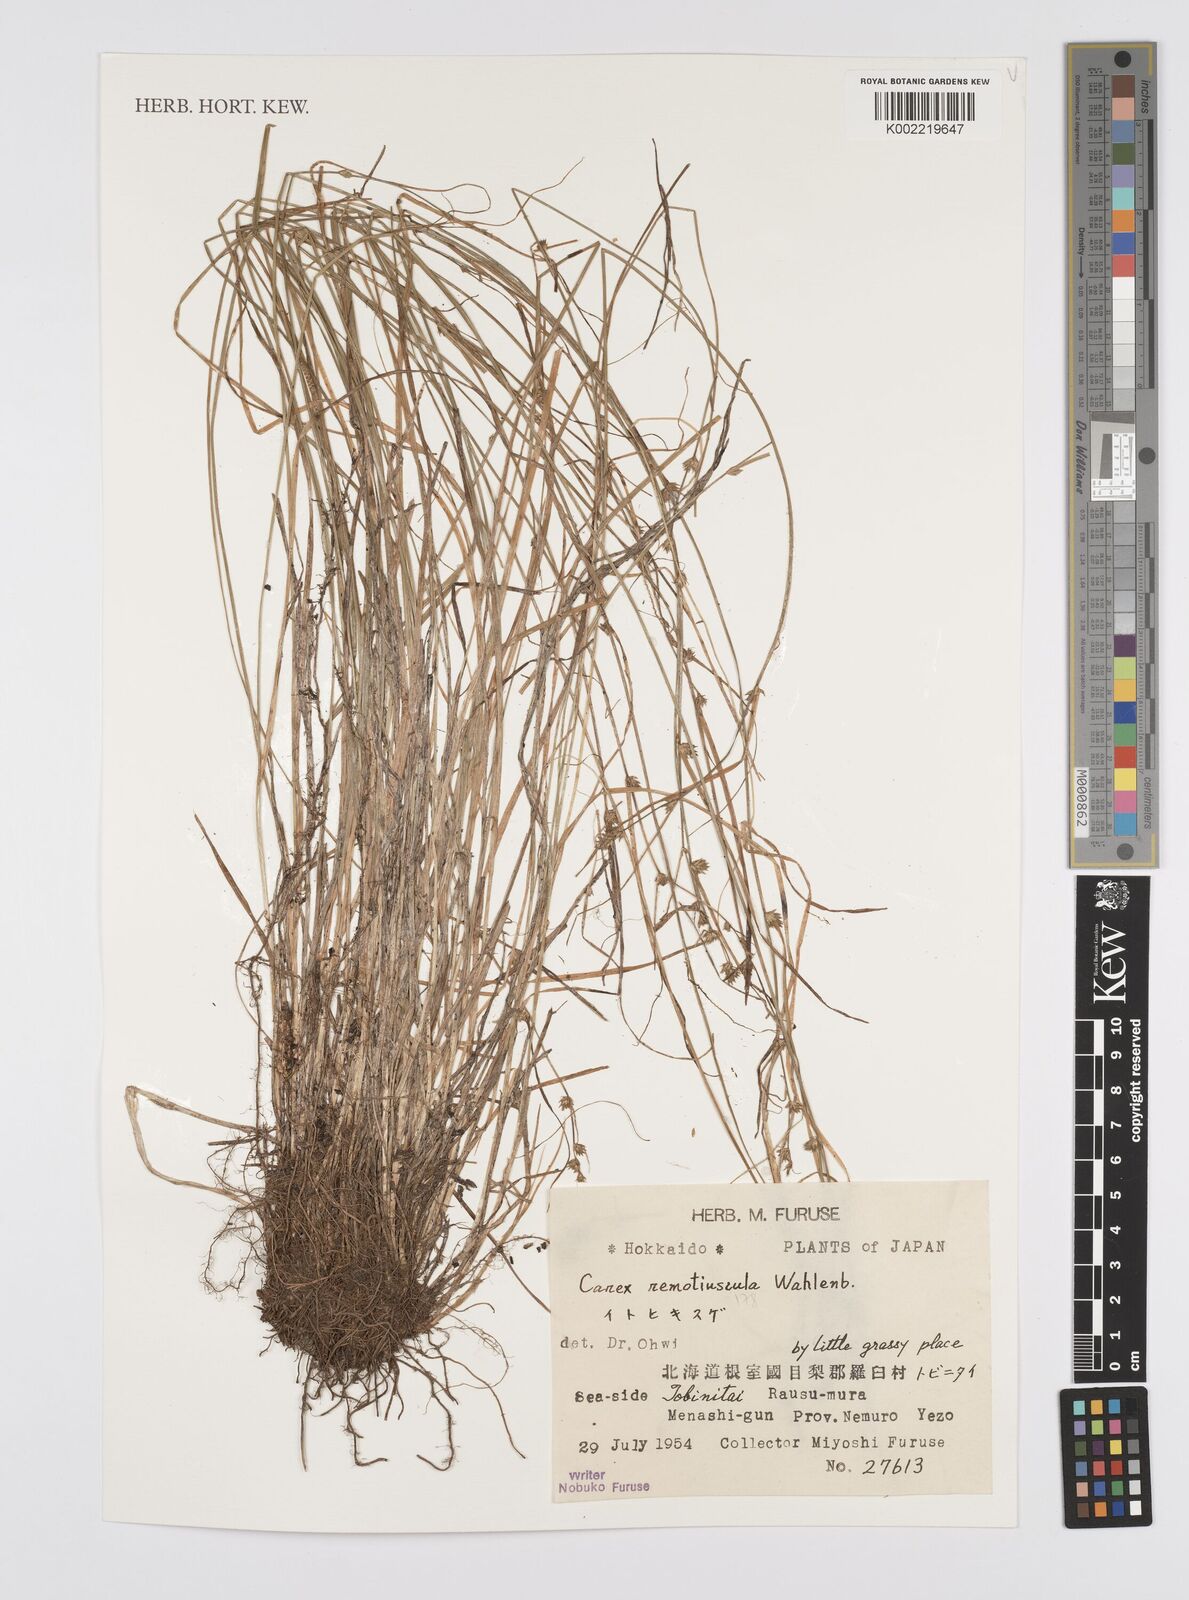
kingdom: Plantae
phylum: Tracheophyta
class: Liliopsida
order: Poales
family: Cyperaceae
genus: Carex
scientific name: Carex traiziscana
